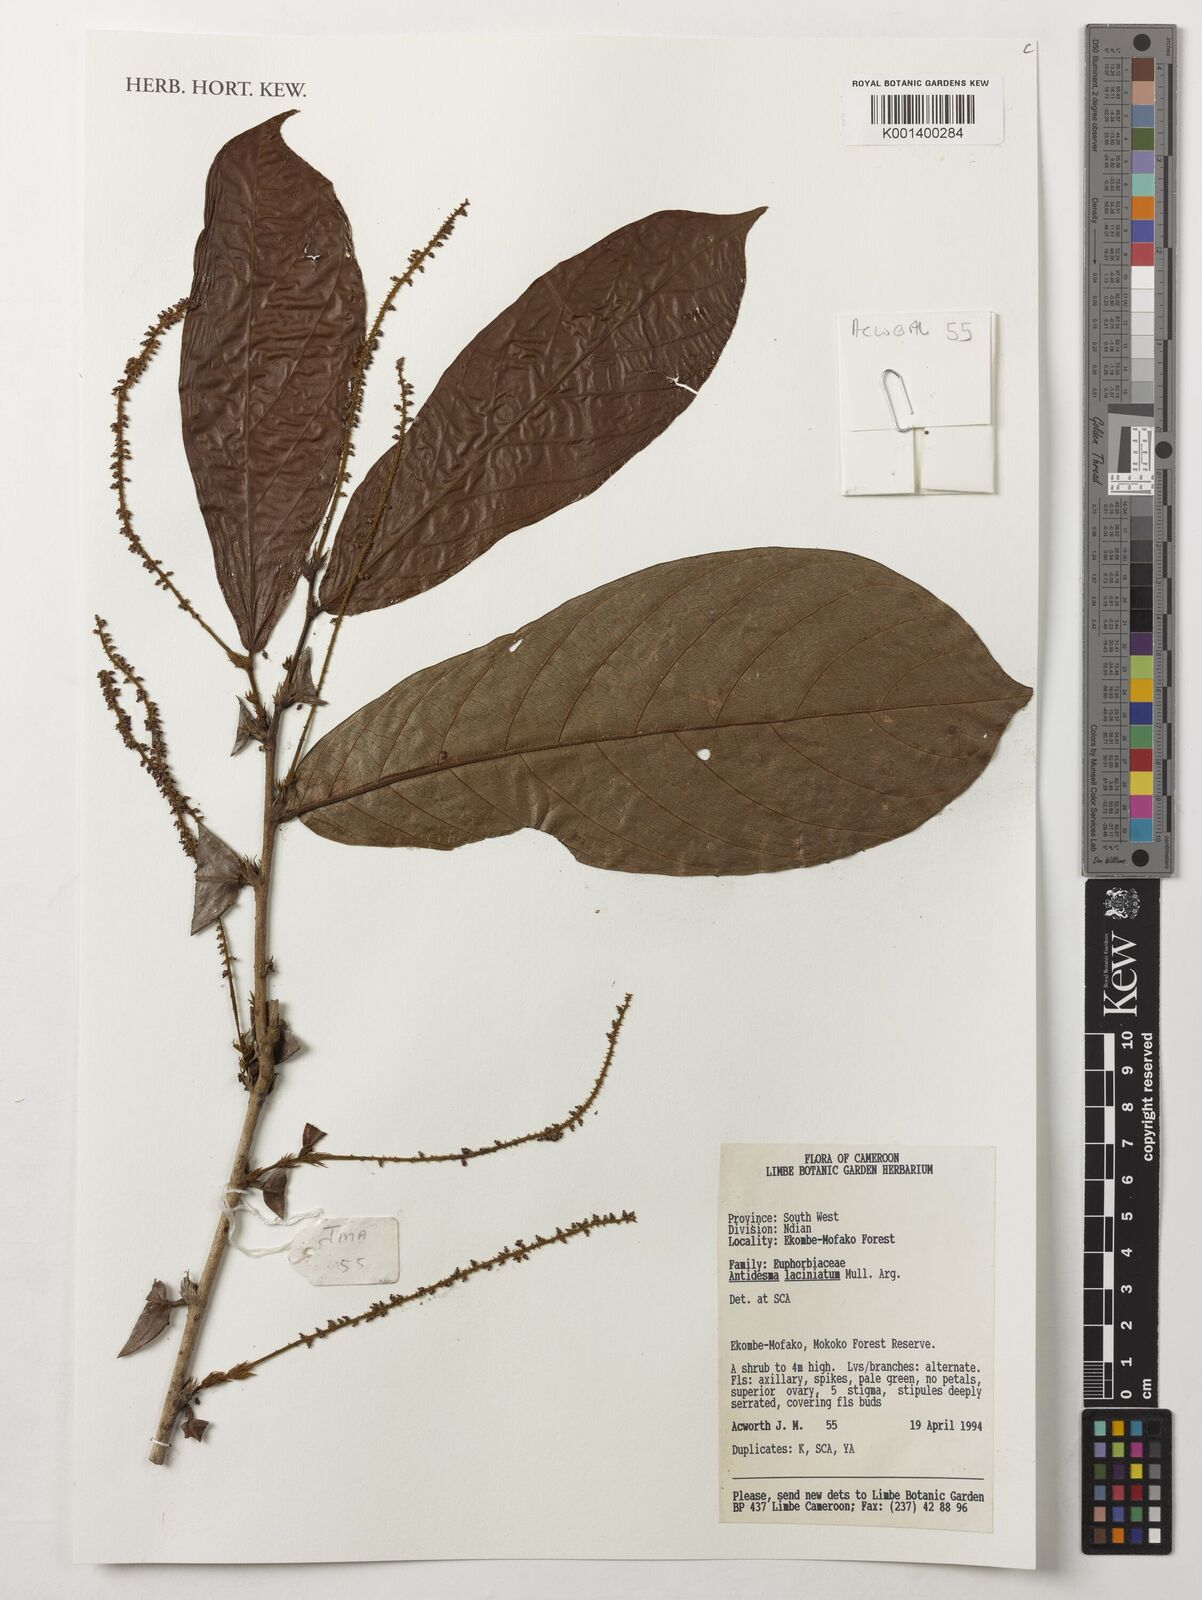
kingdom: Plantae
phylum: Tracheophyta
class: Magnoliopsida
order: Malpighiales
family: Phyllanthaceae
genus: Antidesma
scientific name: Antidesma laciniatum
